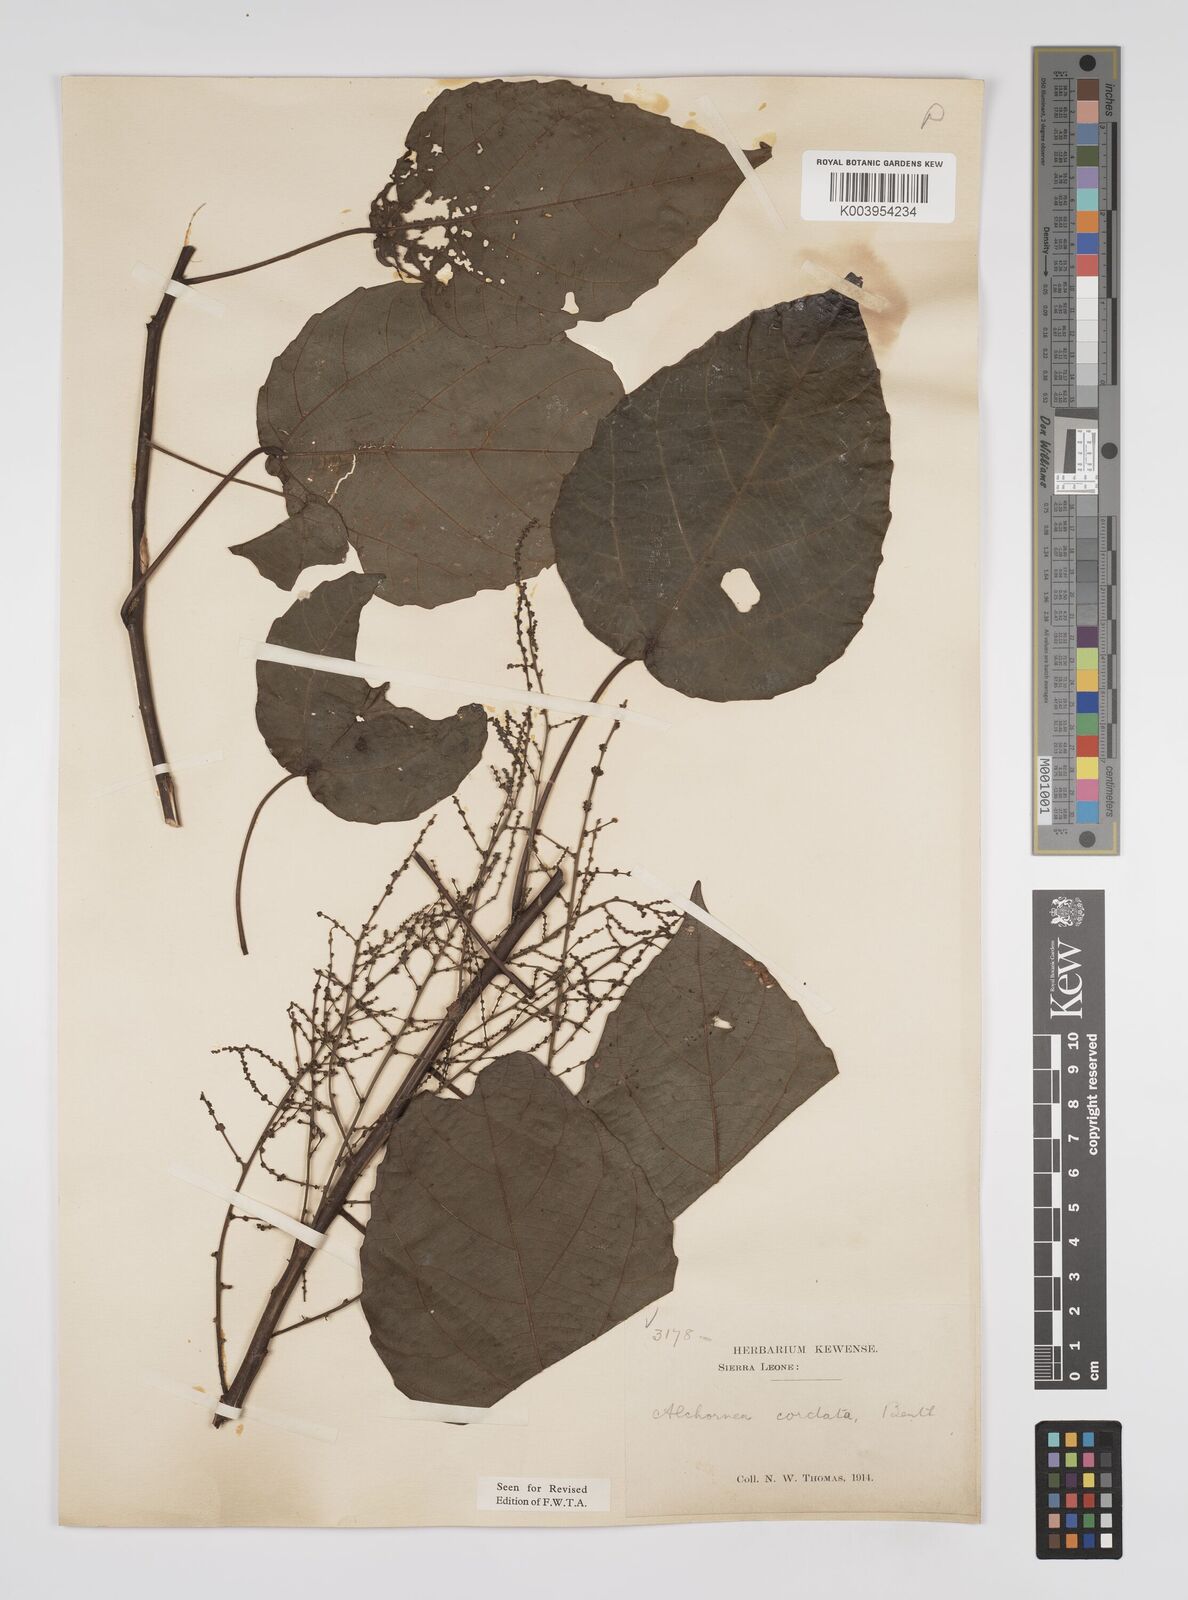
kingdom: Plantae
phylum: Tracheophyta
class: Magnoliopsida
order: Malpighiales
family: Euphorbiaceae
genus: Alchornea
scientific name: Alchornea cordifolia
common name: Christmasbush
